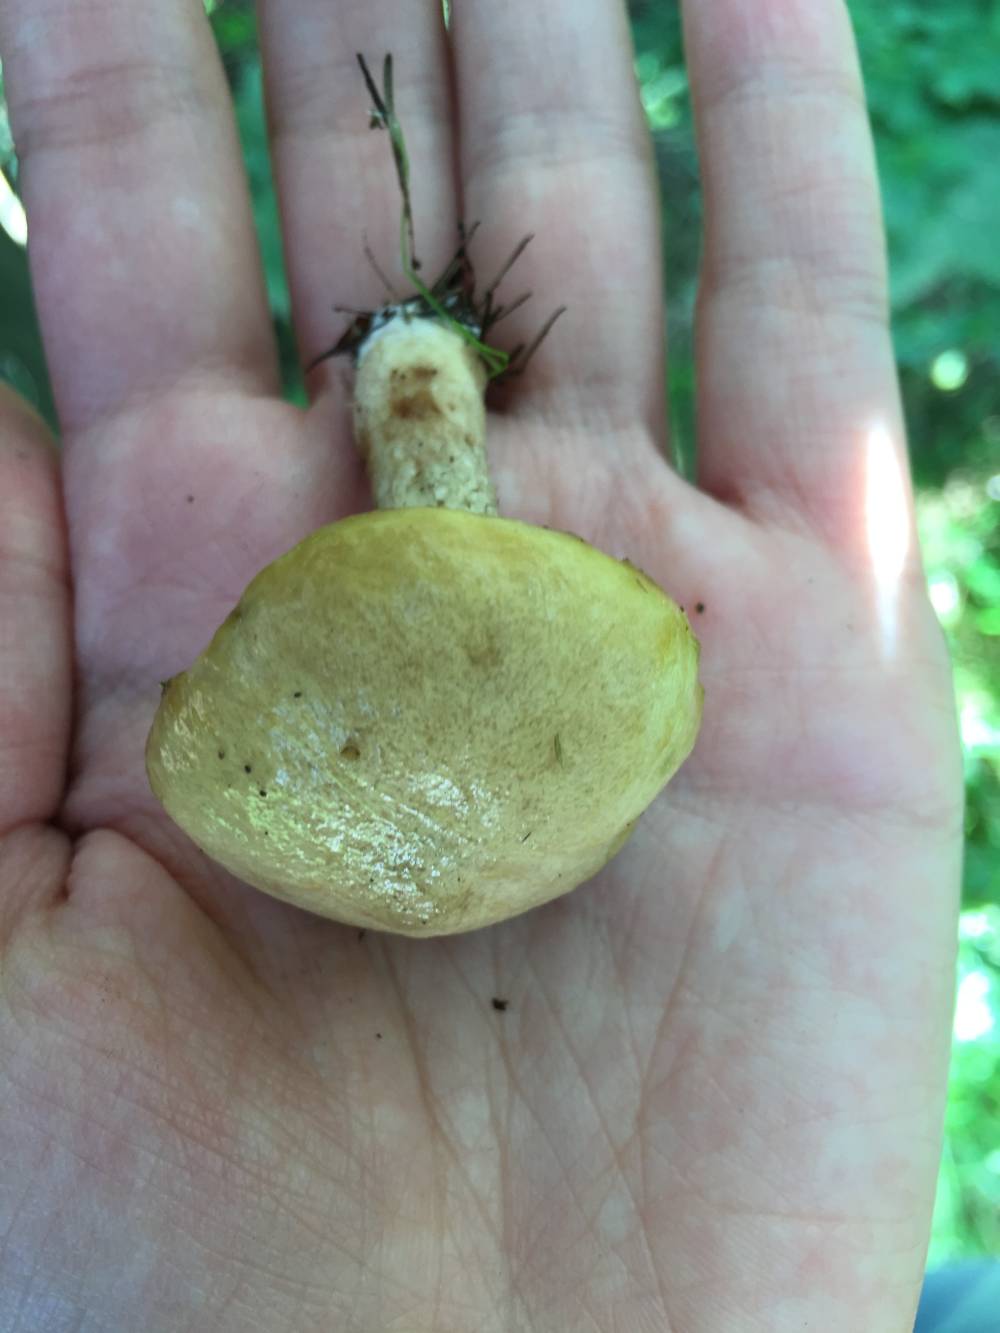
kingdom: Fungi
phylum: Basidiomycota
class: Agaricomycetes
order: Boletales
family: Suillaceae
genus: Suillus
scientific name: Suillus grevillei
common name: lærke-slimrørhat
